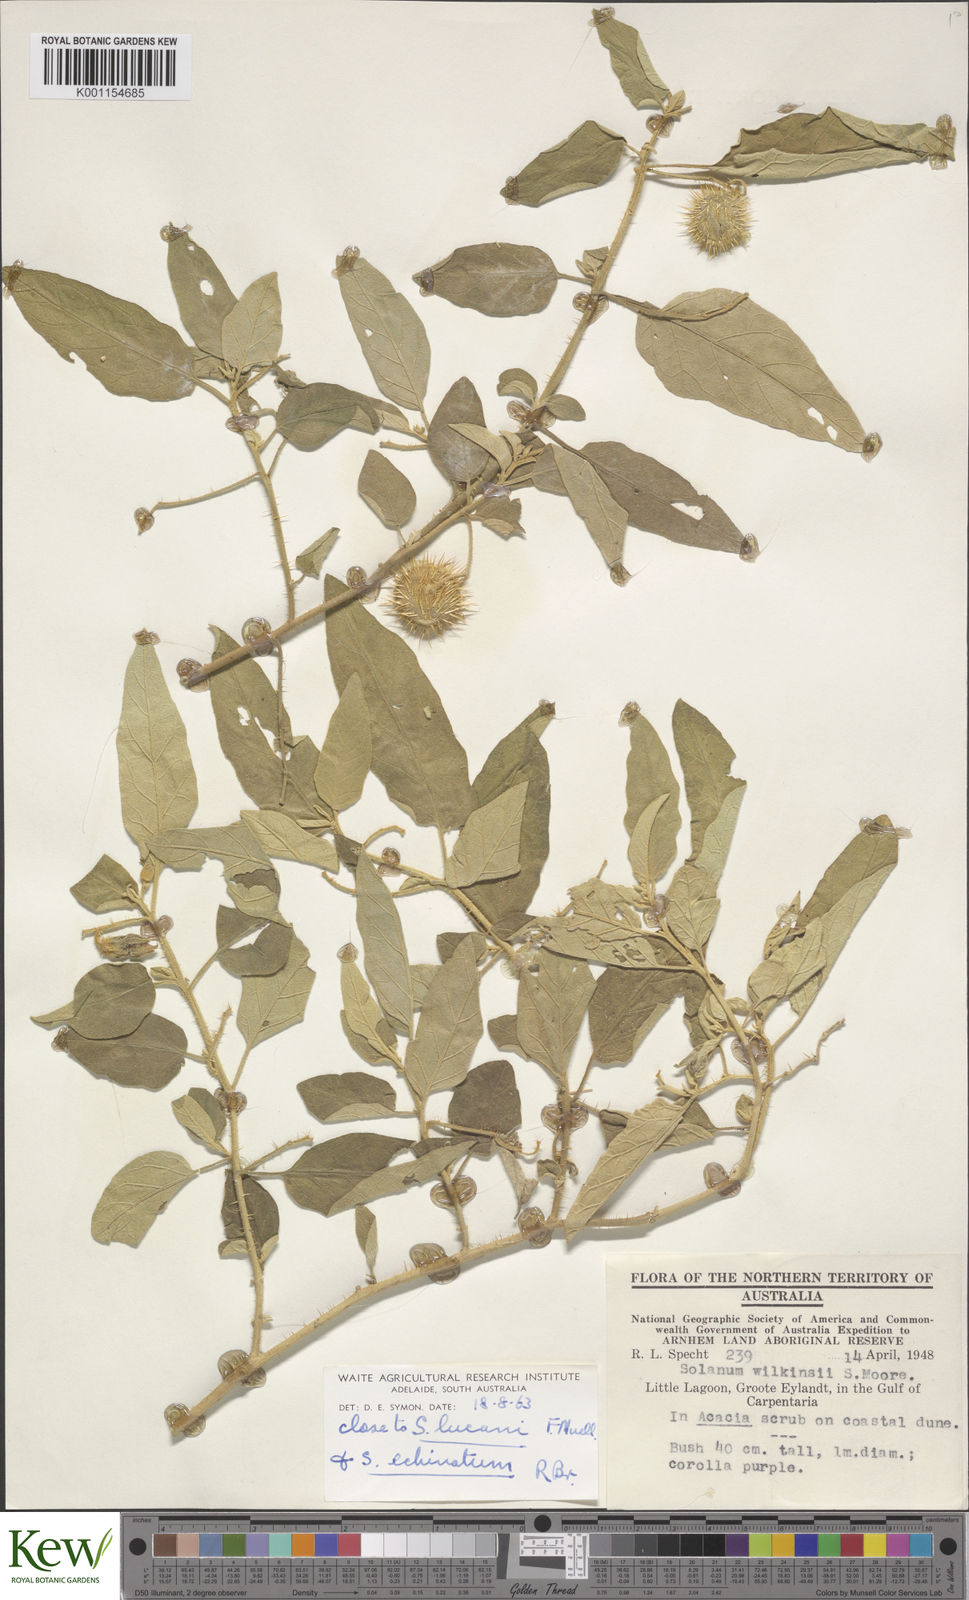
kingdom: Plantae
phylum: Tracheophyta
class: Magnoliopsida
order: Solanales
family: Solanaceae
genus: Solanum
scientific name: Solanum echinatum
